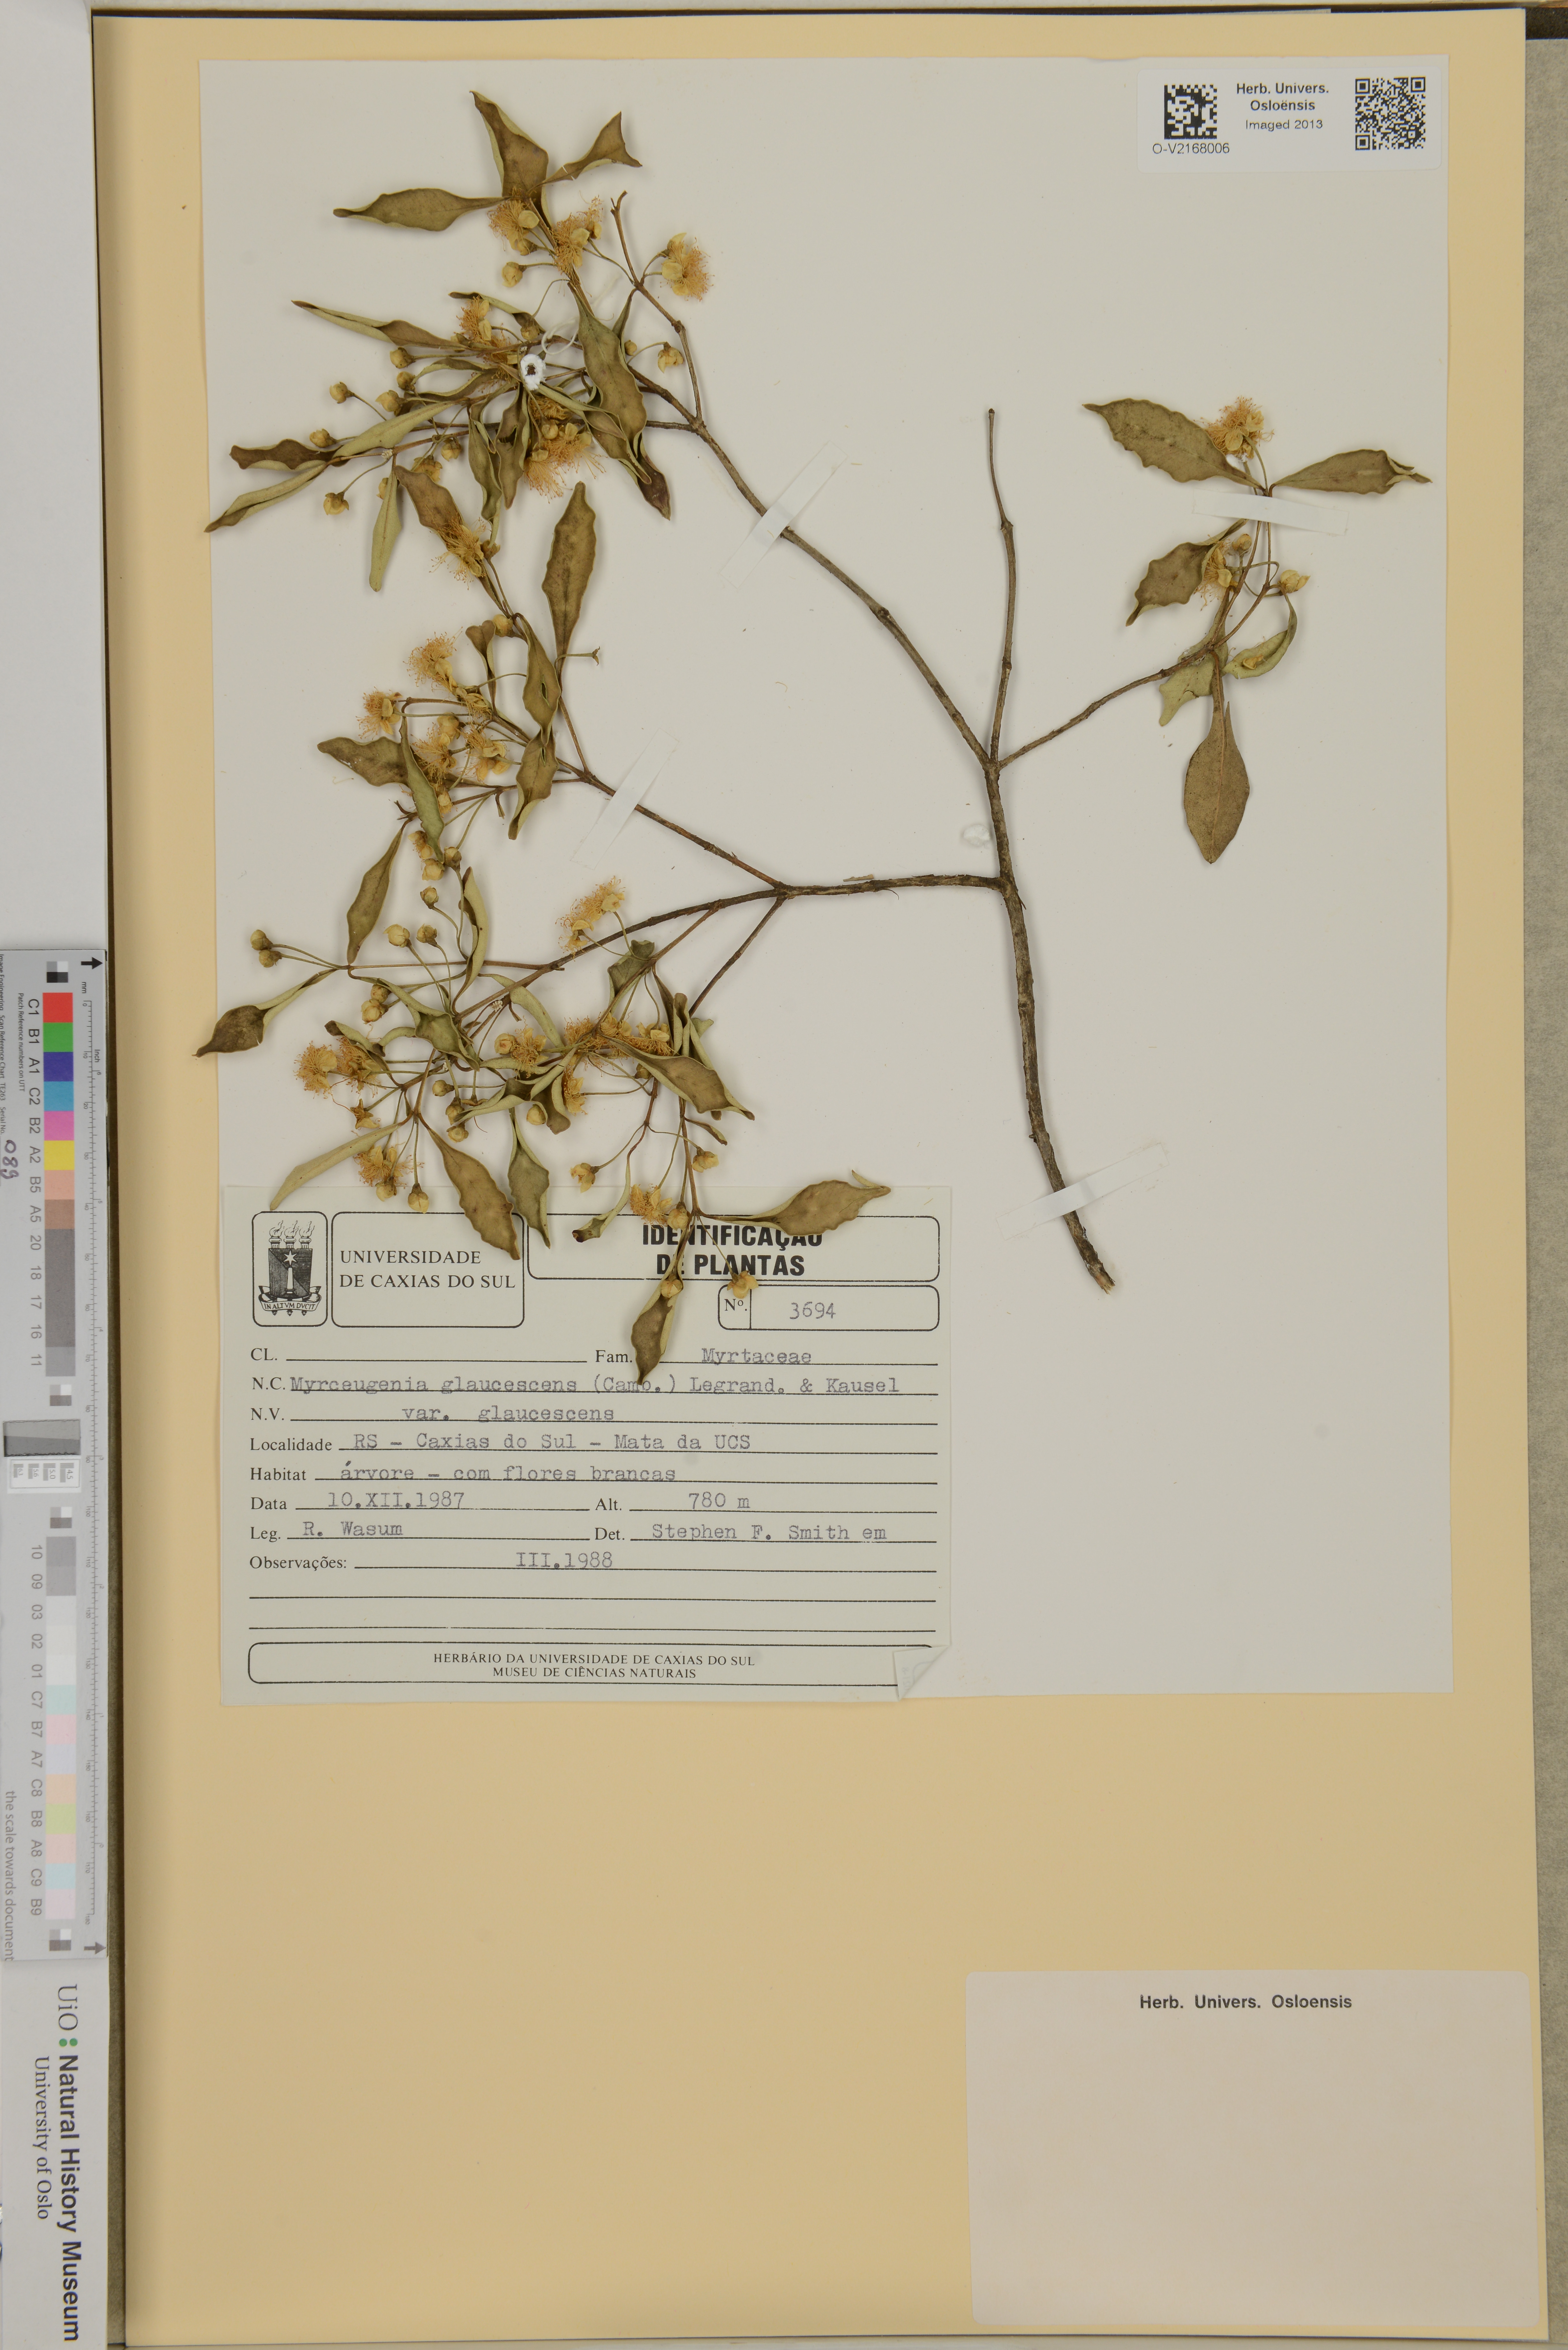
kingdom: Plantae
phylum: Tracheophyta
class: Magnoliopsida
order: Myrtales
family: Myrtaceae
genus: Myrceugenia
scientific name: Myrceugenia glaucescens
